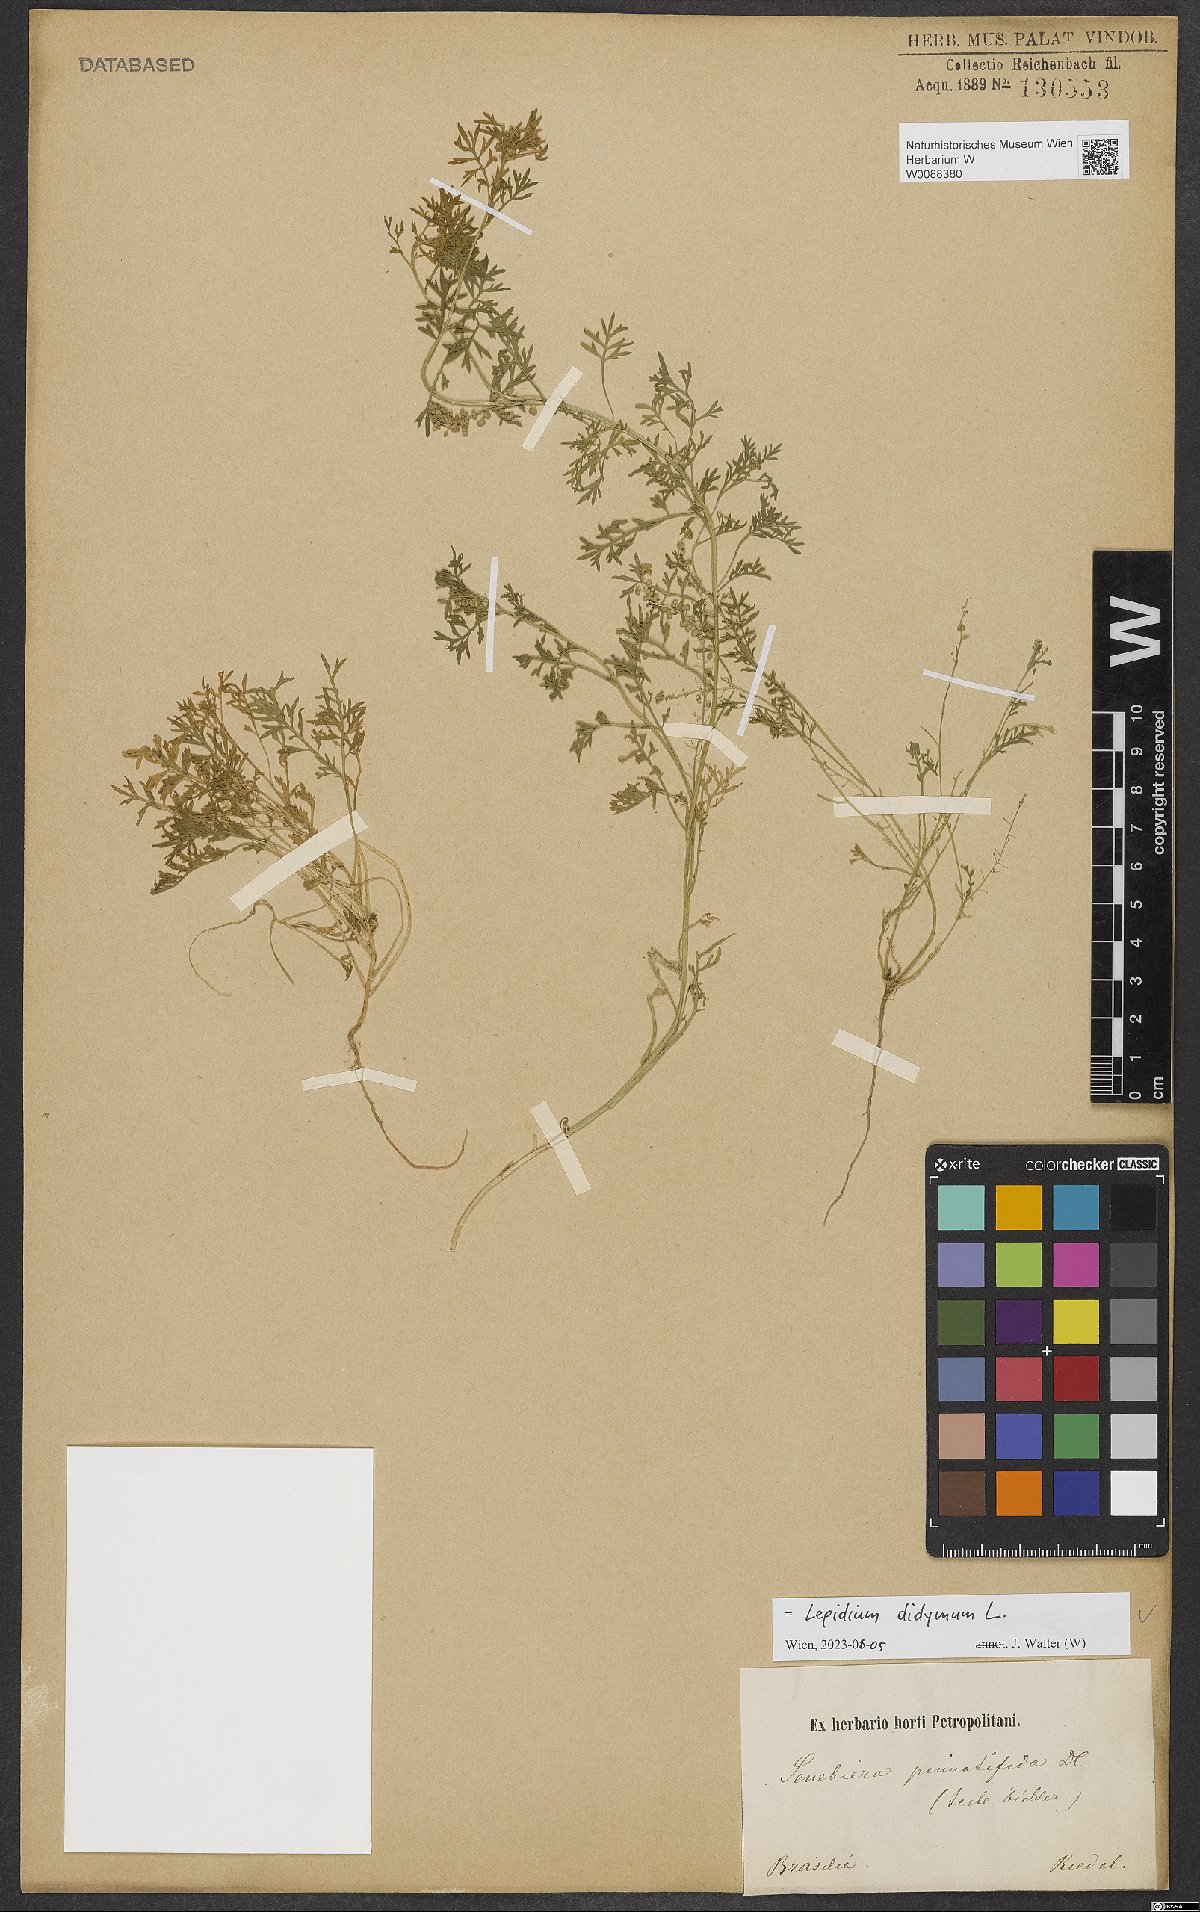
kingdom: Plantae
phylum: Tracheophyta
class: Magnoliopsida
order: Brassicales
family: Brassicaceae
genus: Lepidium
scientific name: Lepidium didymum
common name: Lesser swinecress
